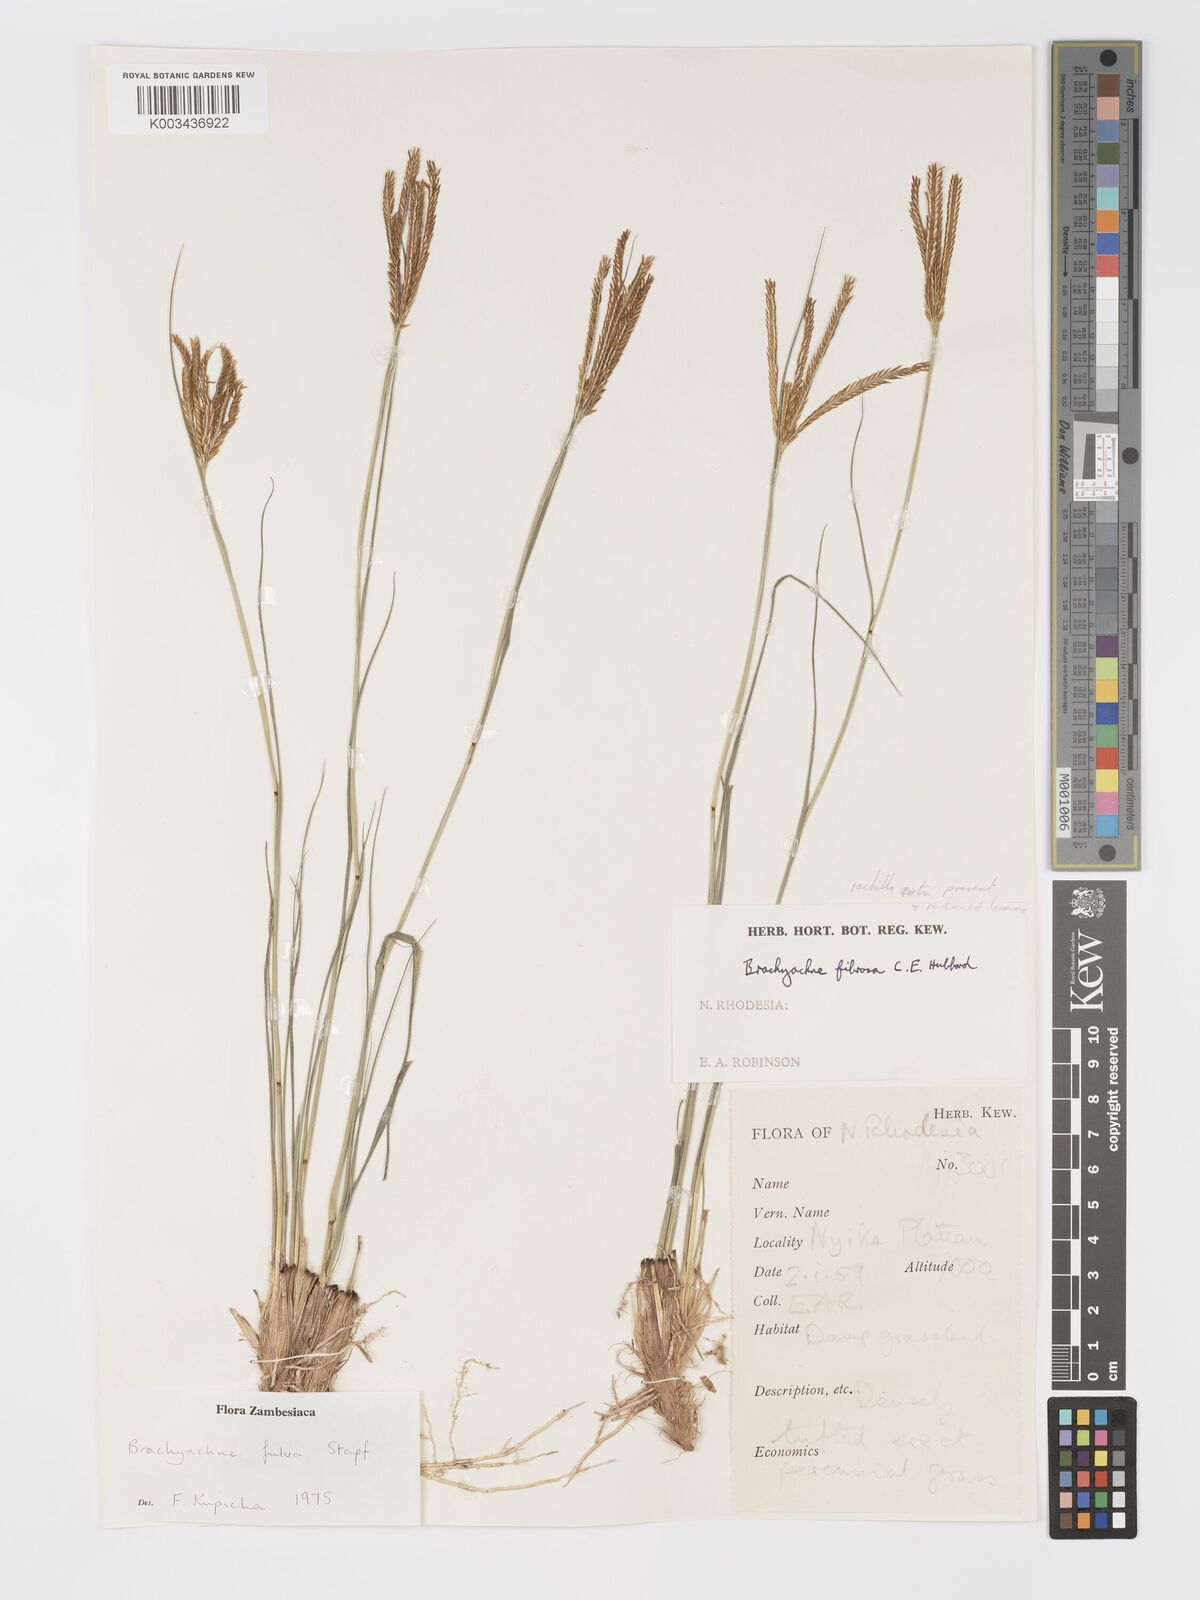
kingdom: Plantae
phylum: Tracheophyta
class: Liliopsida
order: Poales
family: Poaceae
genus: Micrachne
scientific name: Micrachne fulva
